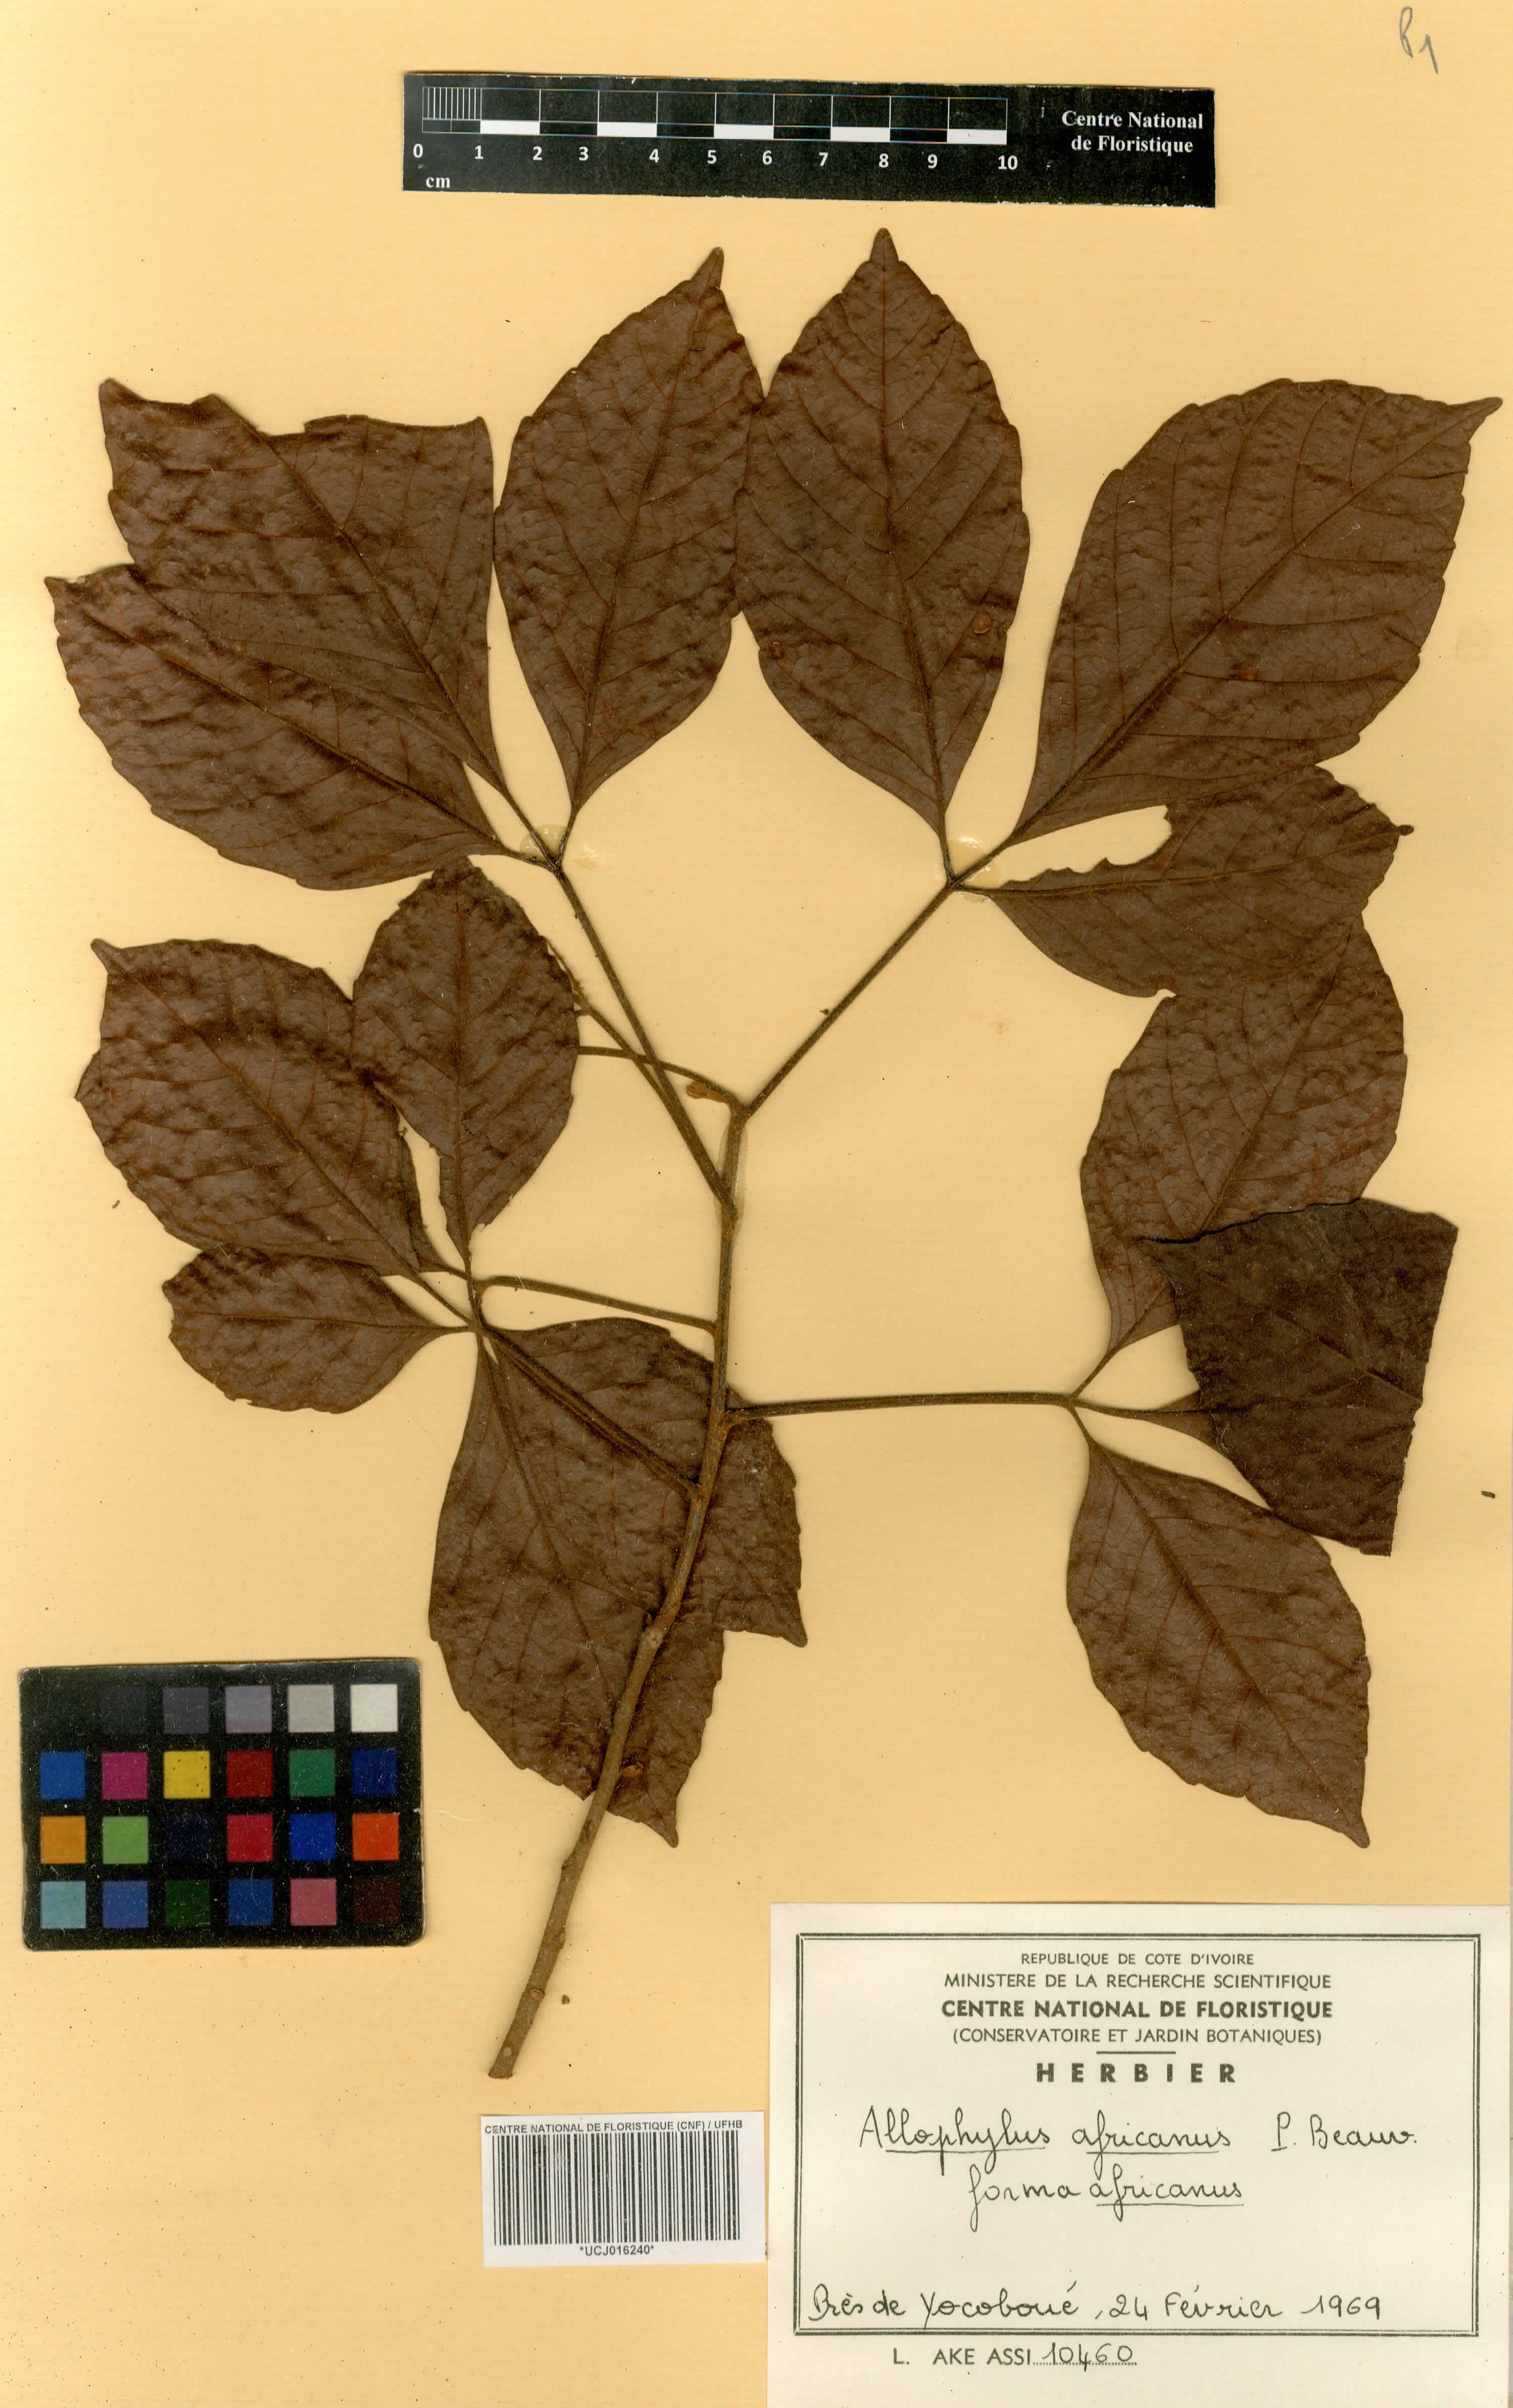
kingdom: Plantae
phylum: Tracheophyta
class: Magnoliopsida
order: Sapindales
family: Sapindaceae
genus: Allophylus
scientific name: Allophylus africanus
